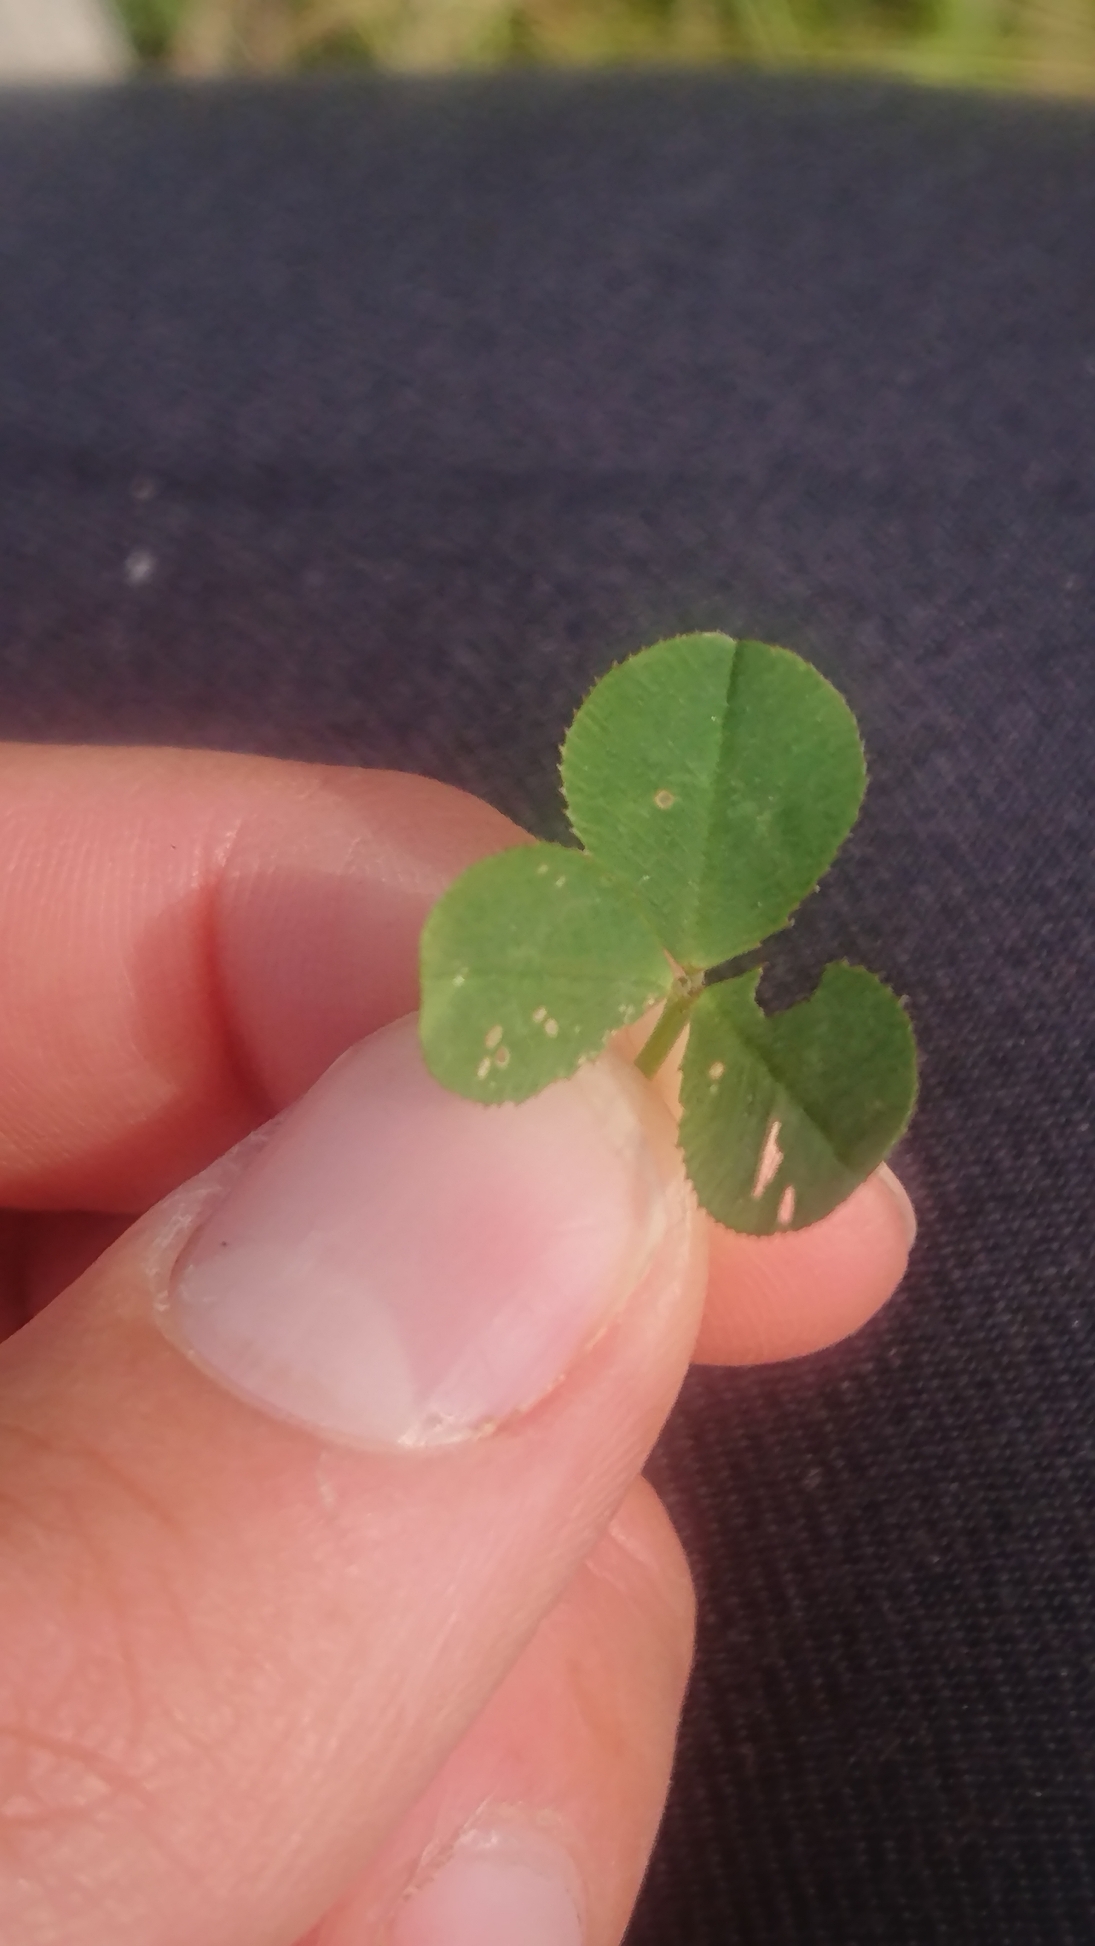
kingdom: Plantae
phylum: Tracheophyta
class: Magnoliopsida
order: Fabales
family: Fabaceae
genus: Trifolium
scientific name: Trifolium repens
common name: Hvid-kløver
